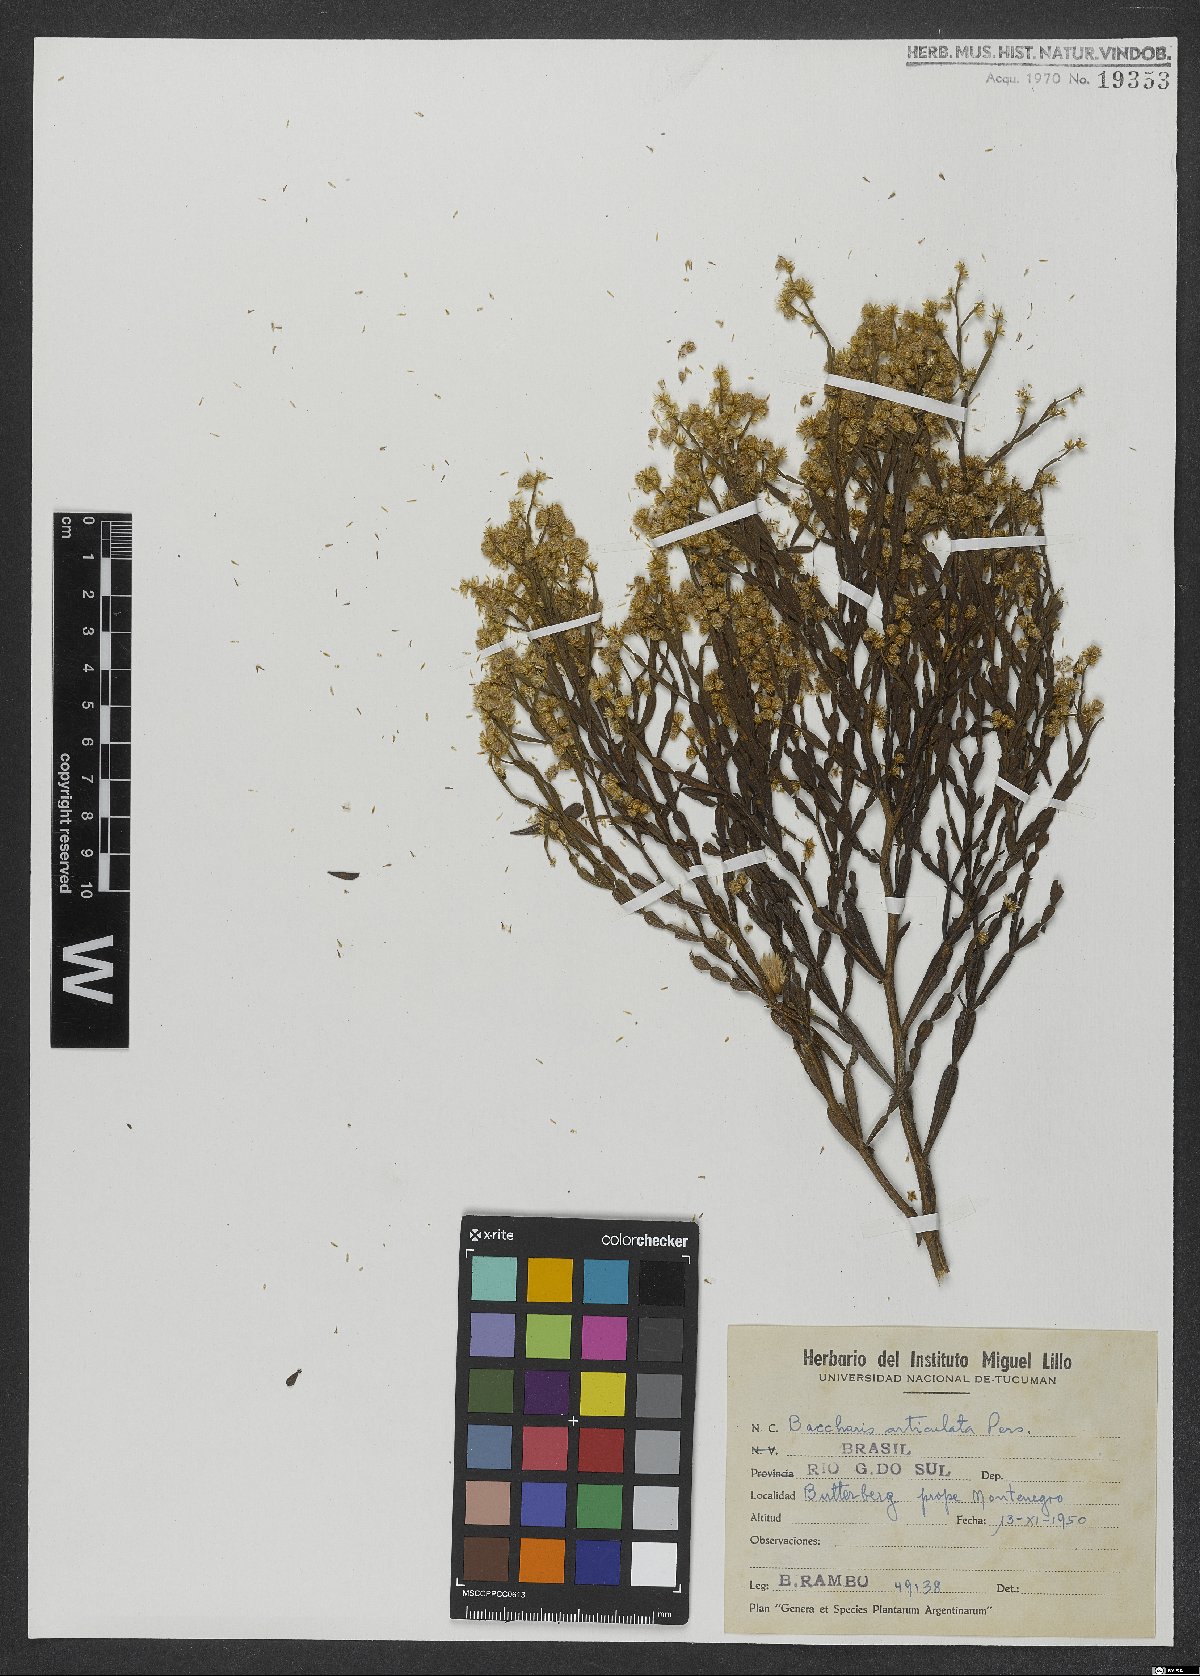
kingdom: Plantae
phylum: Tracheophyta
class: Magnoliopsida
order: Asterales
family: Asteraceae
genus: Baccharis
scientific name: Baccharis articulata
